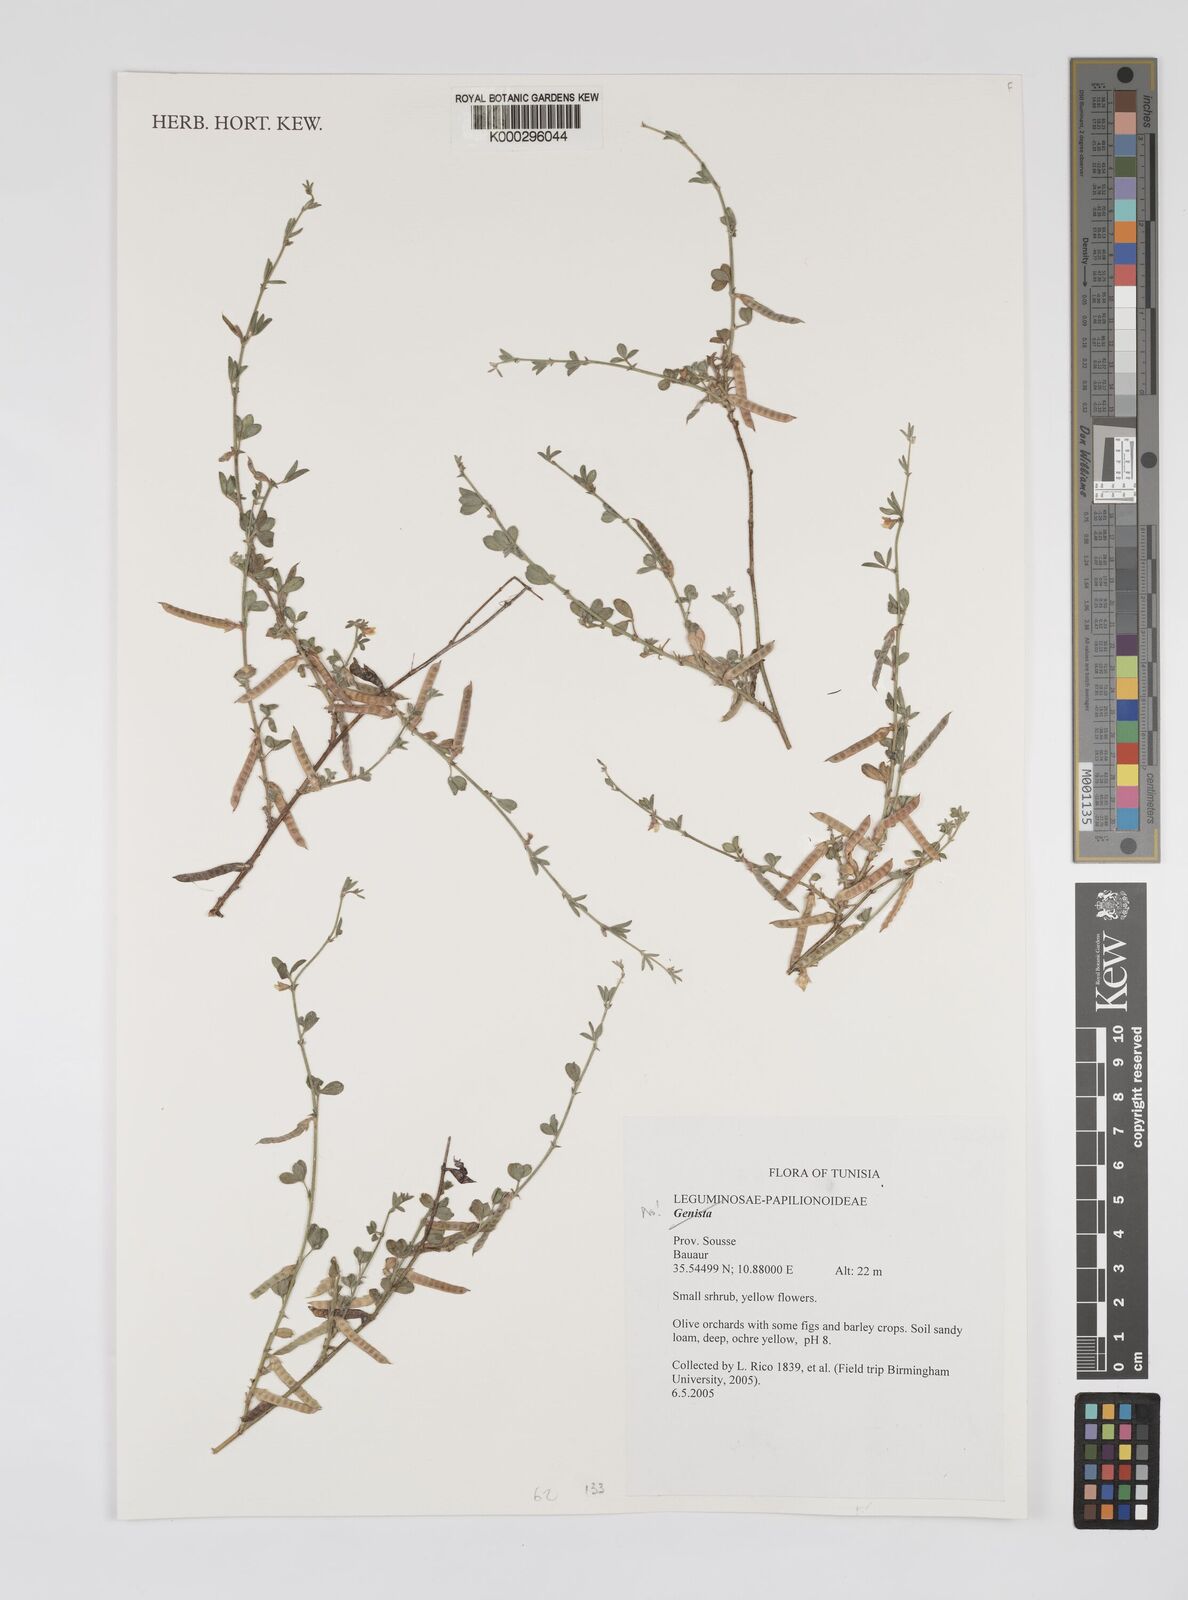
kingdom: Plantae
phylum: Tracheophyta
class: Magnoliopsida
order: Fabales
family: Fabaceae
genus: Genista
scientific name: Genista
